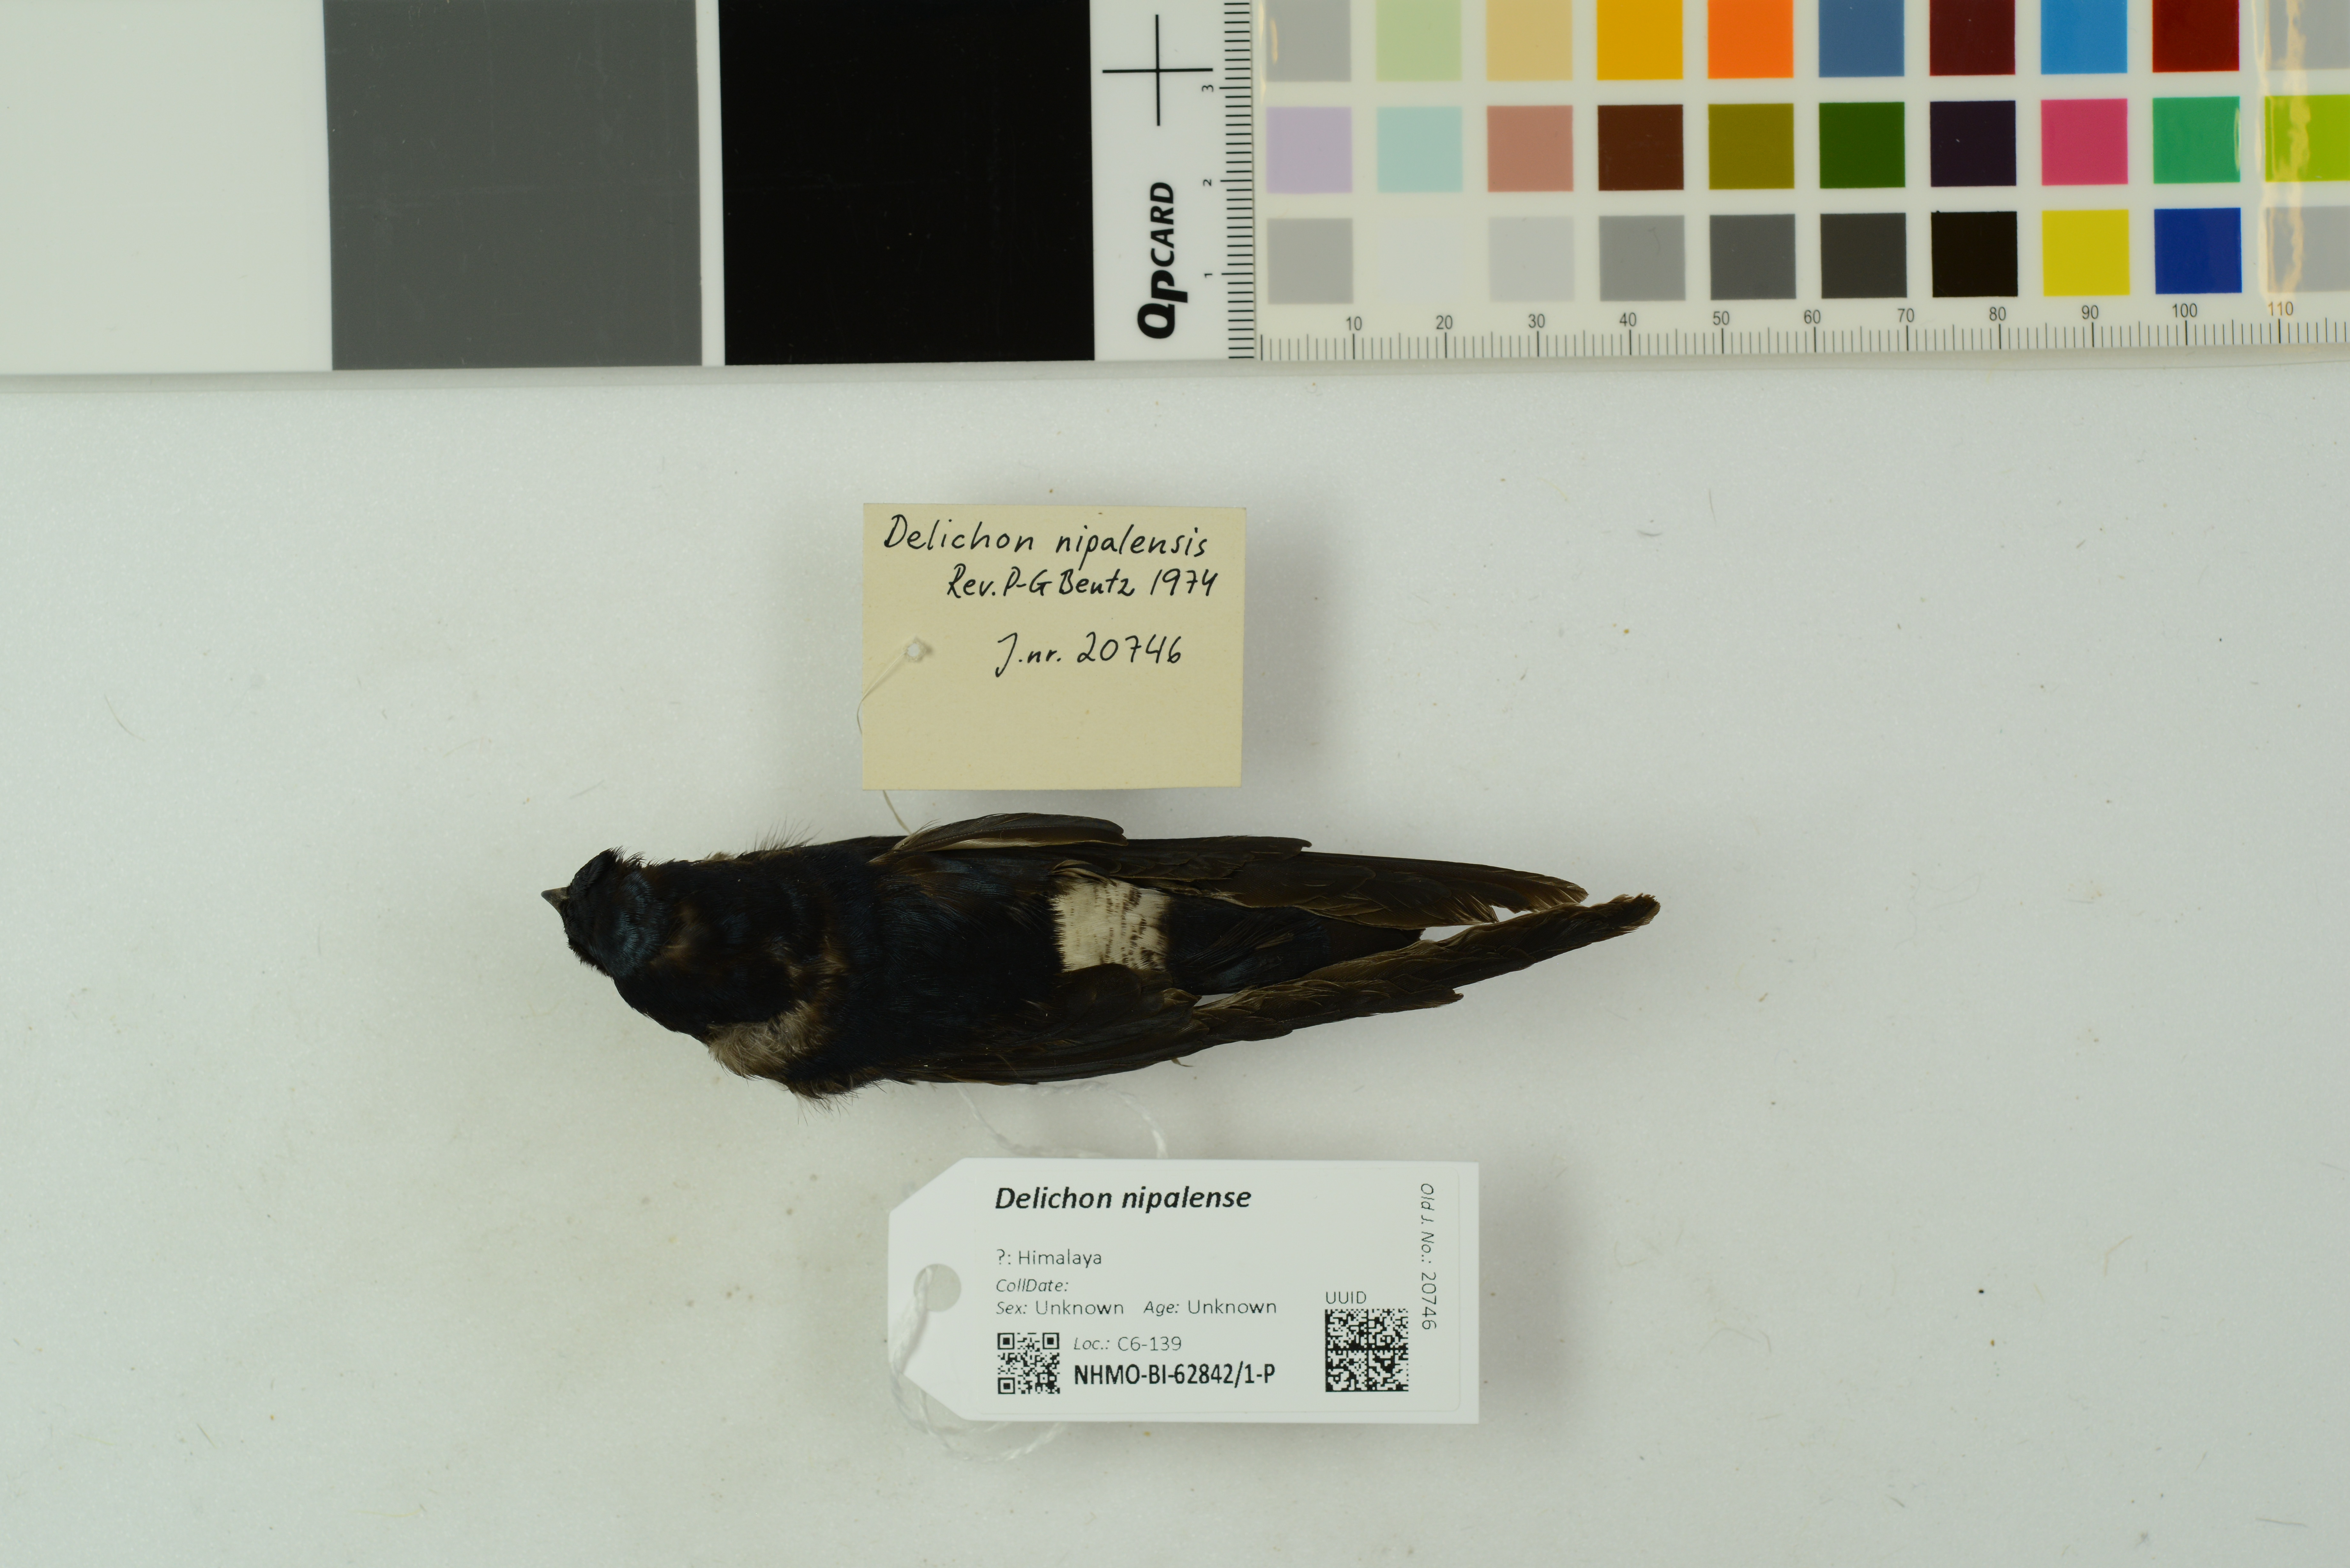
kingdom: Animalia
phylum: Chordata
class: Aves
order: Passeriformes
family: Hirundinidae
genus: Delichon
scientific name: Delichon nipalense
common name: Nepal house martin
